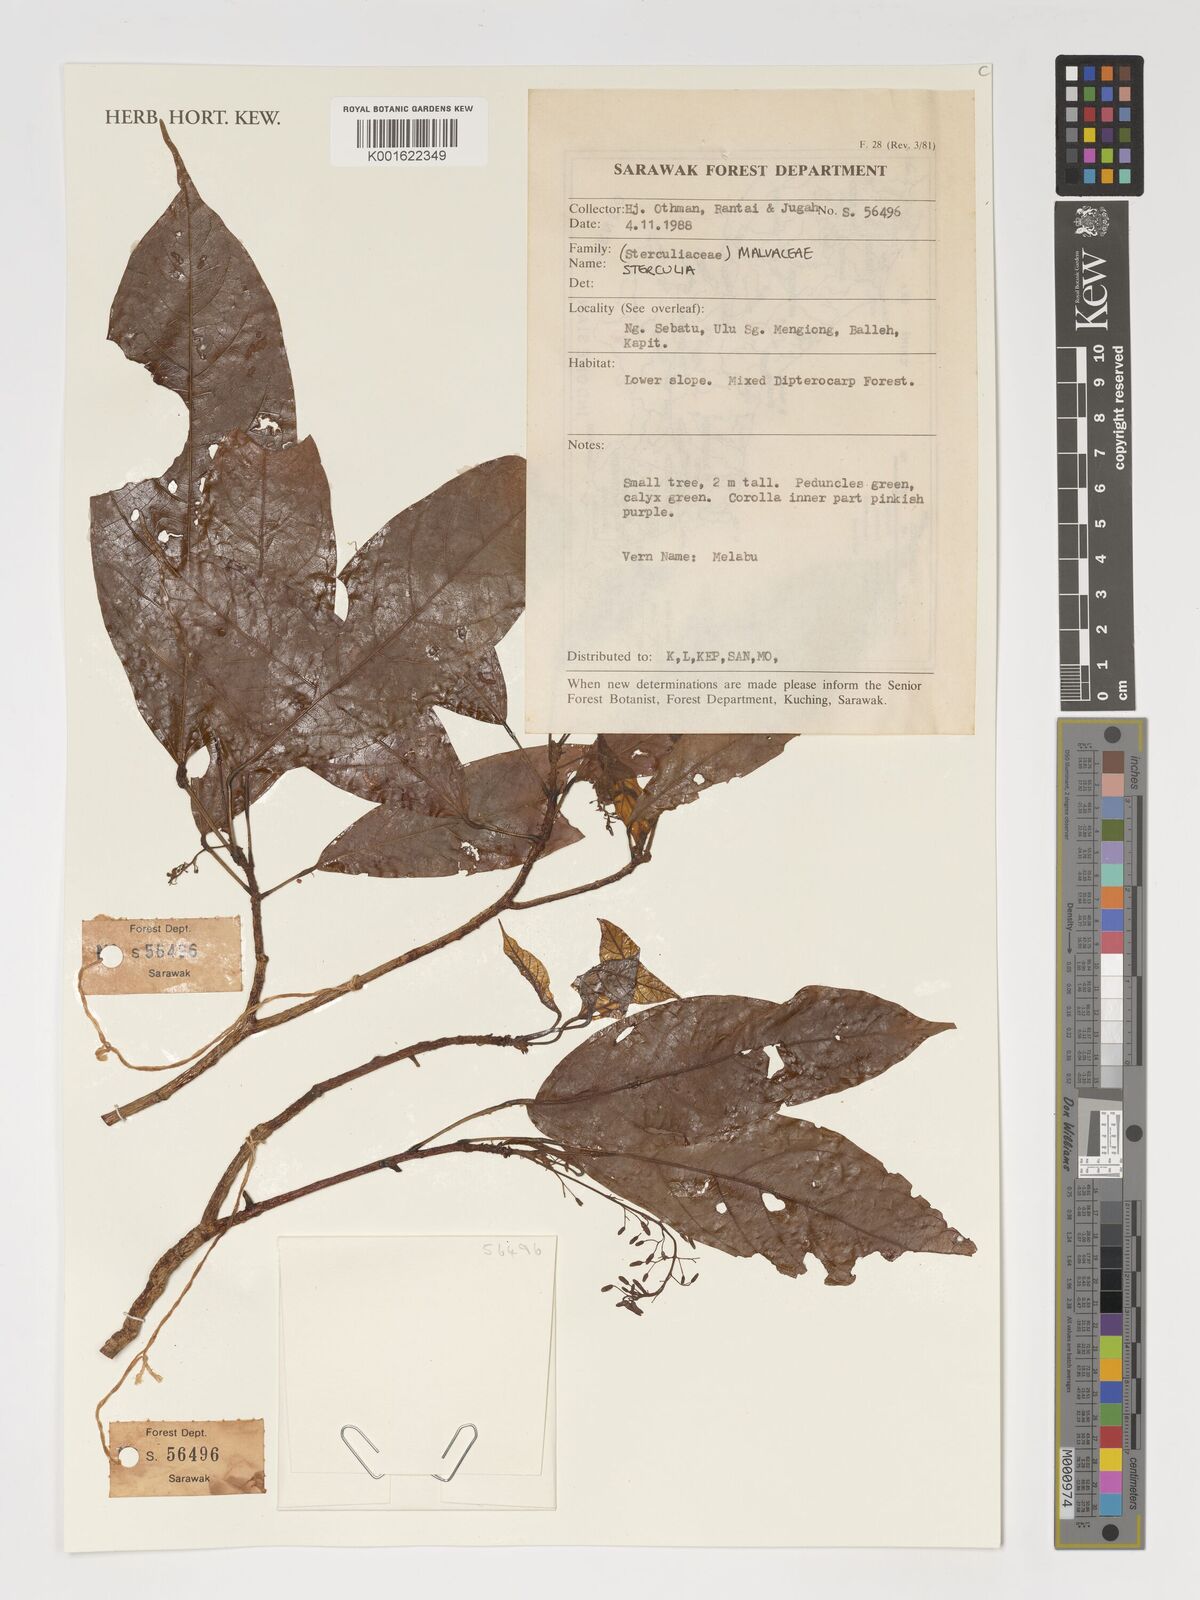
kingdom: Plantae
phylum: Tracheophyta
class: Magnoliopsida
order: Malvales
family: Malvaceae
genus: Sterculia
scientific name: Sterculia
